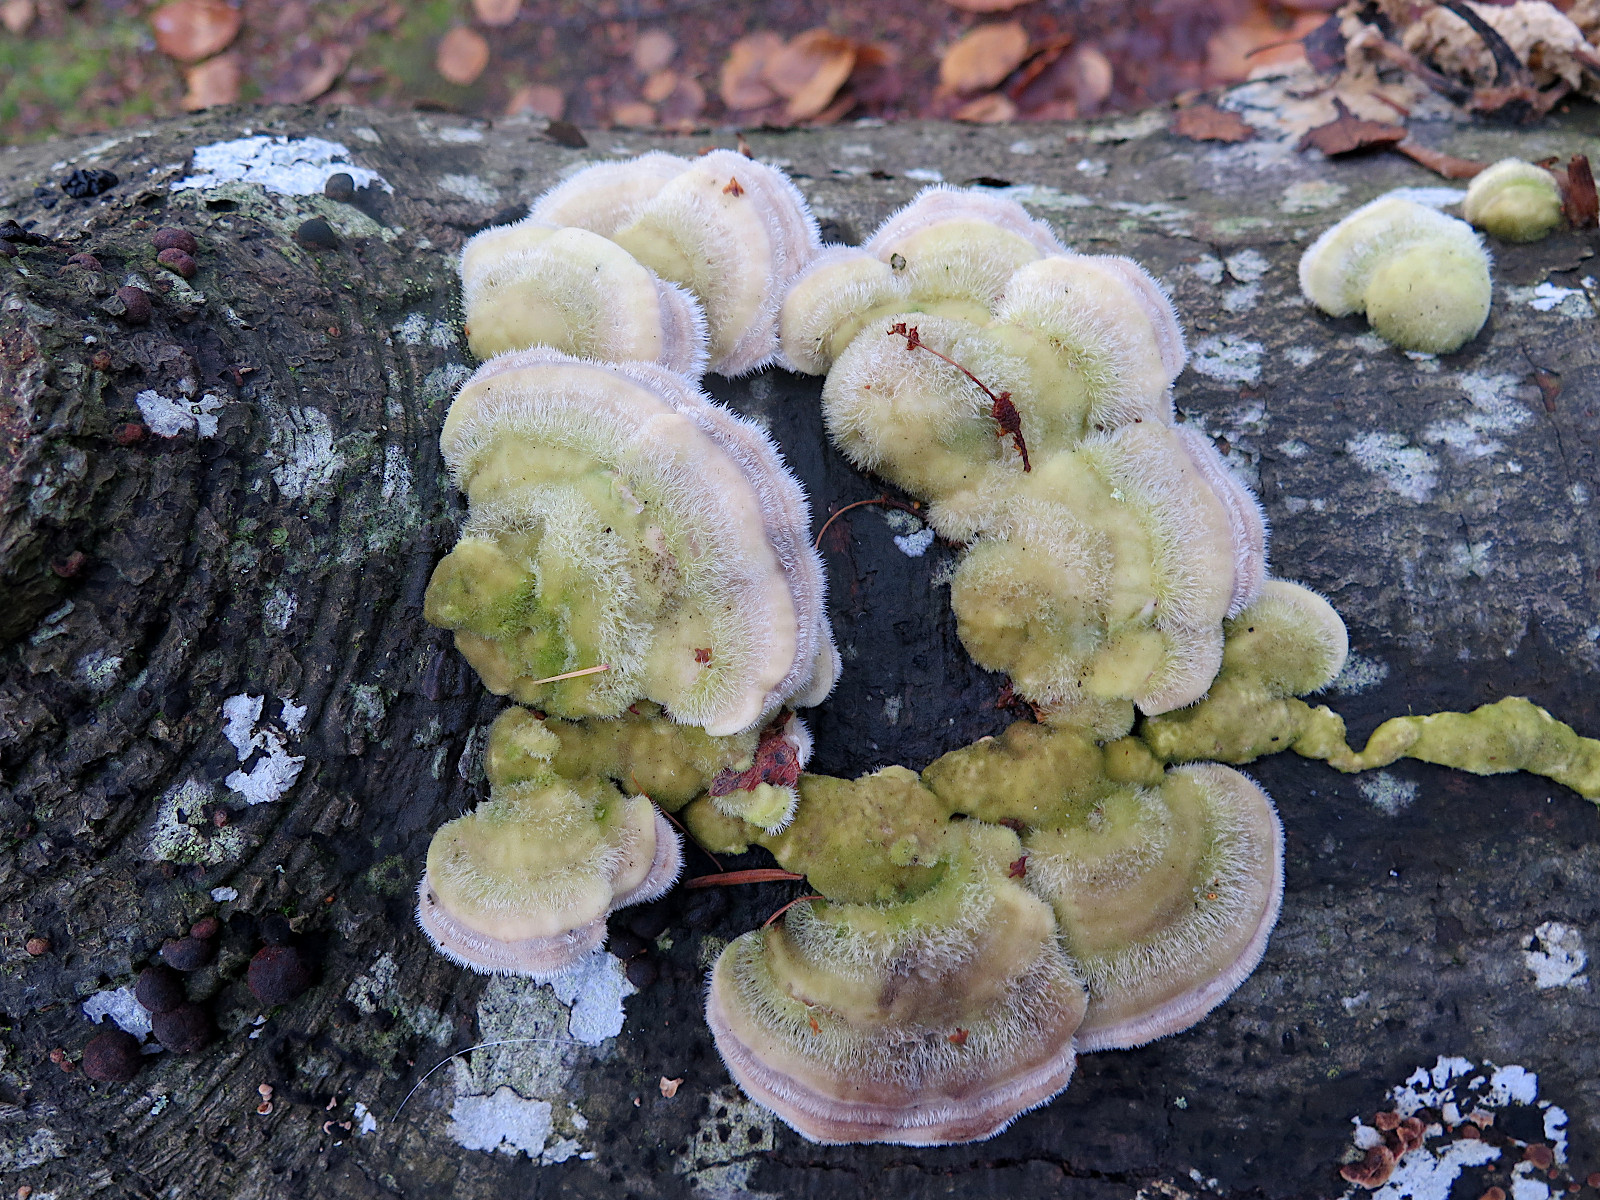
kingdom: Fungi
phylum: Basidiomycota
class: Agaricomycetes
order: Polyporales
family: Polyporaceae
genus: Trametes
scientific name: Trametes hirsuta
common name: håret læderporesvamp
